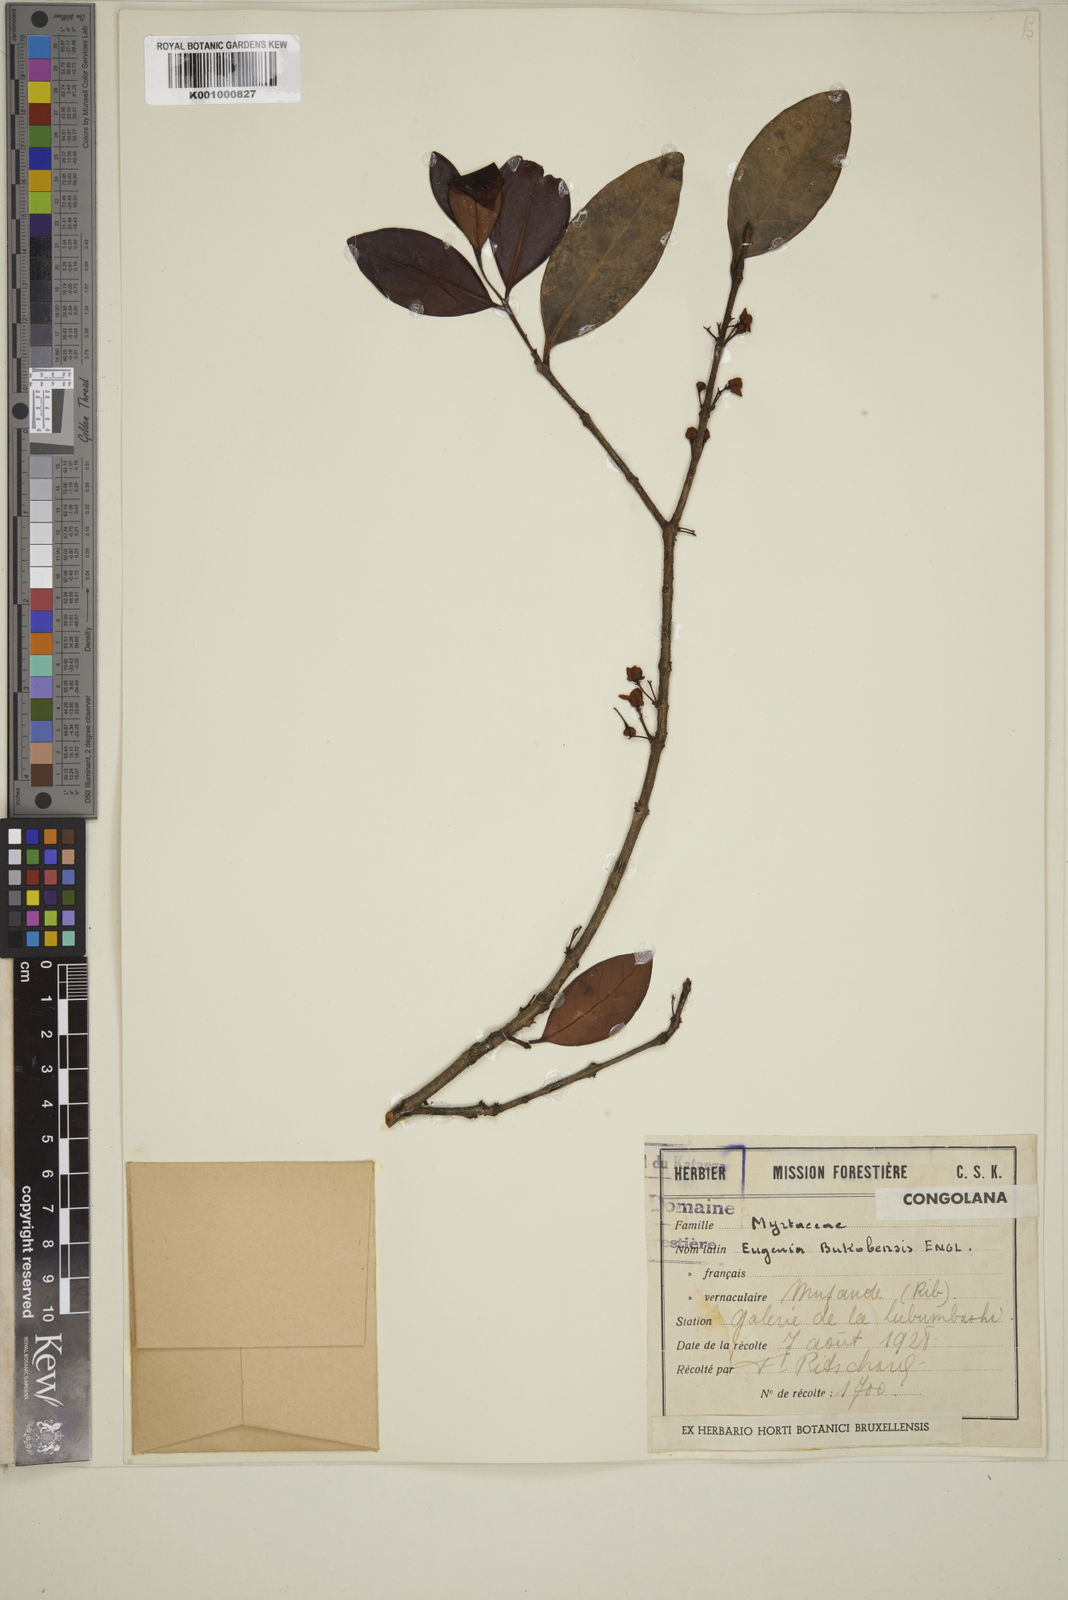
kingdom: Plantae
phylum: Tracheophyta
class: Magnoliopsida
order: Myrtales
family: Myrtaceae
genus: Eugenia
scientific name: Eugenia bukobensis
